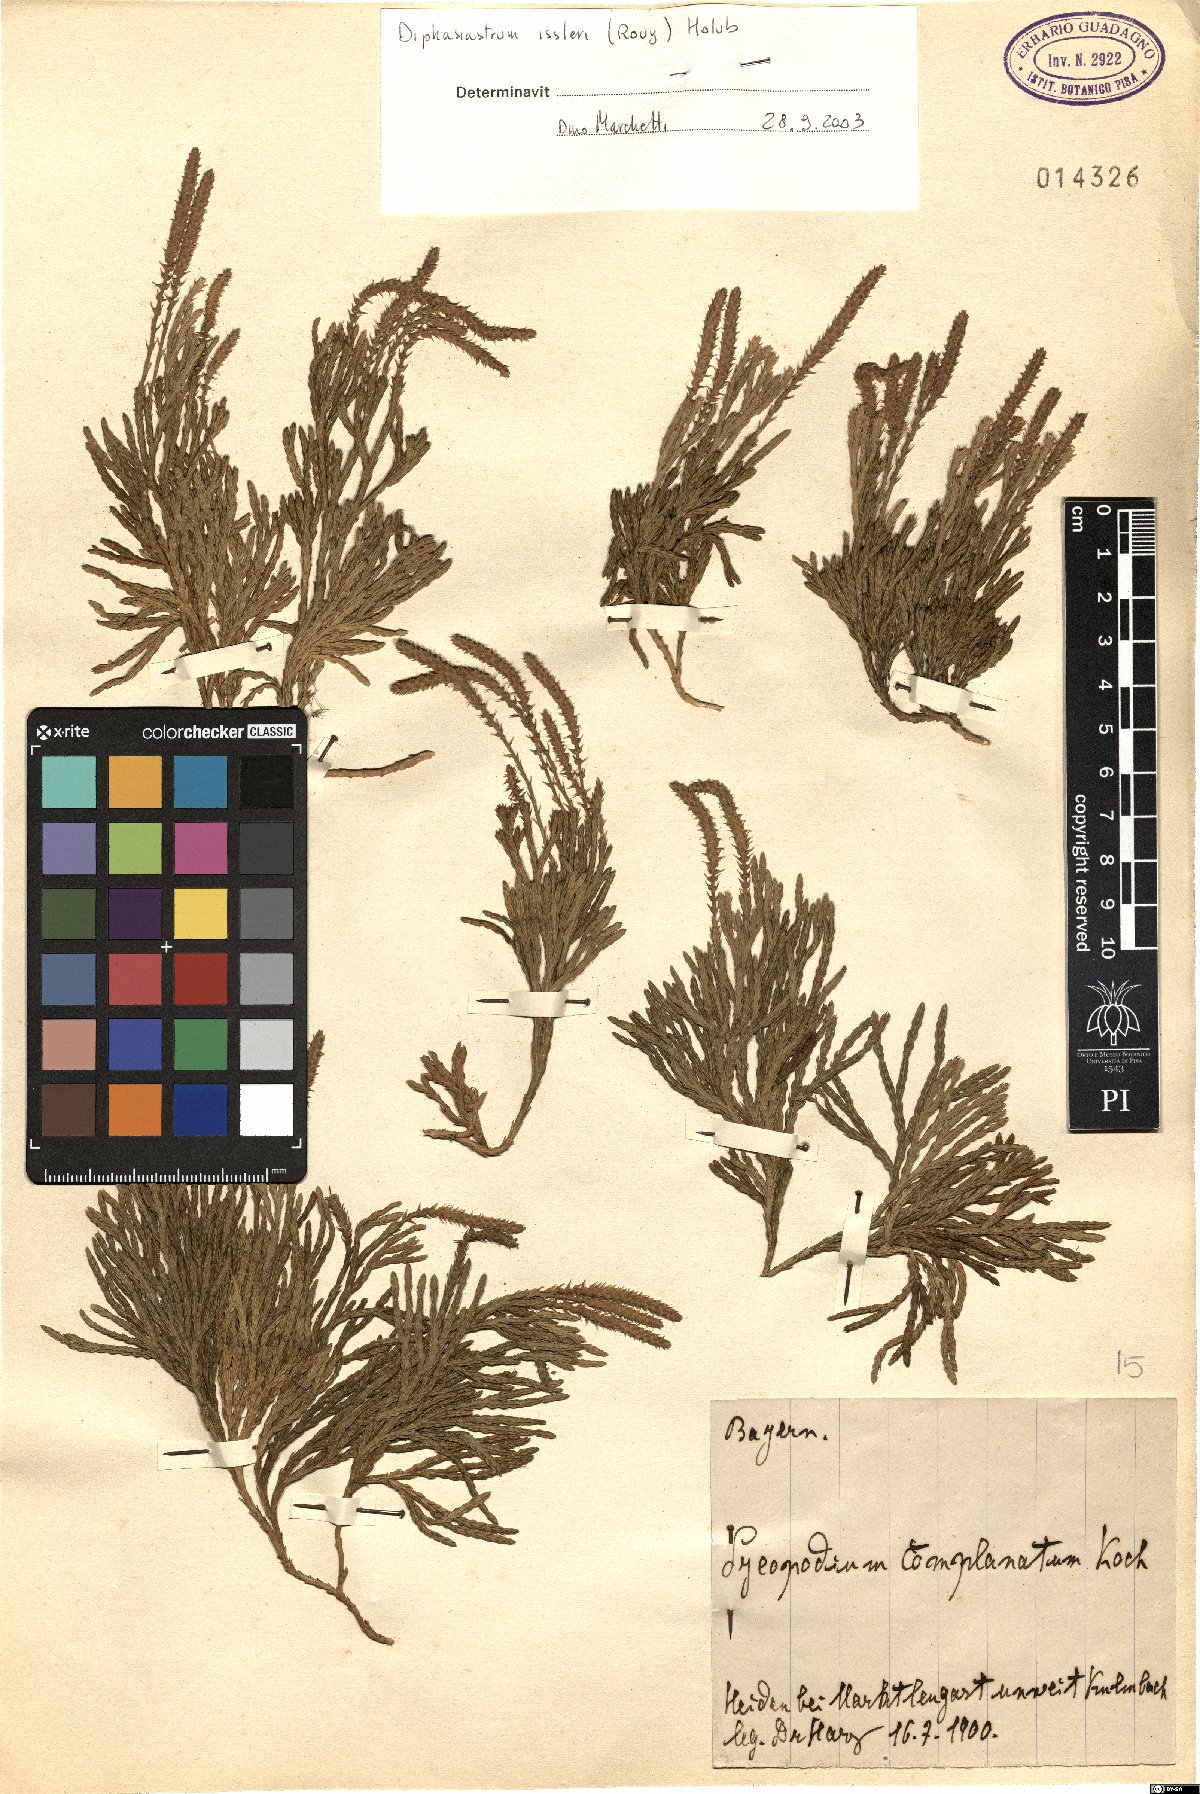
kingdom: Plantae
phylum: Tracheophyta
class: Lycopodiopsida
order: Lycopodiales
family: Lycopodiaceae
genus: Diphasiastrum
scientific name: Diphasiastrum issleri
